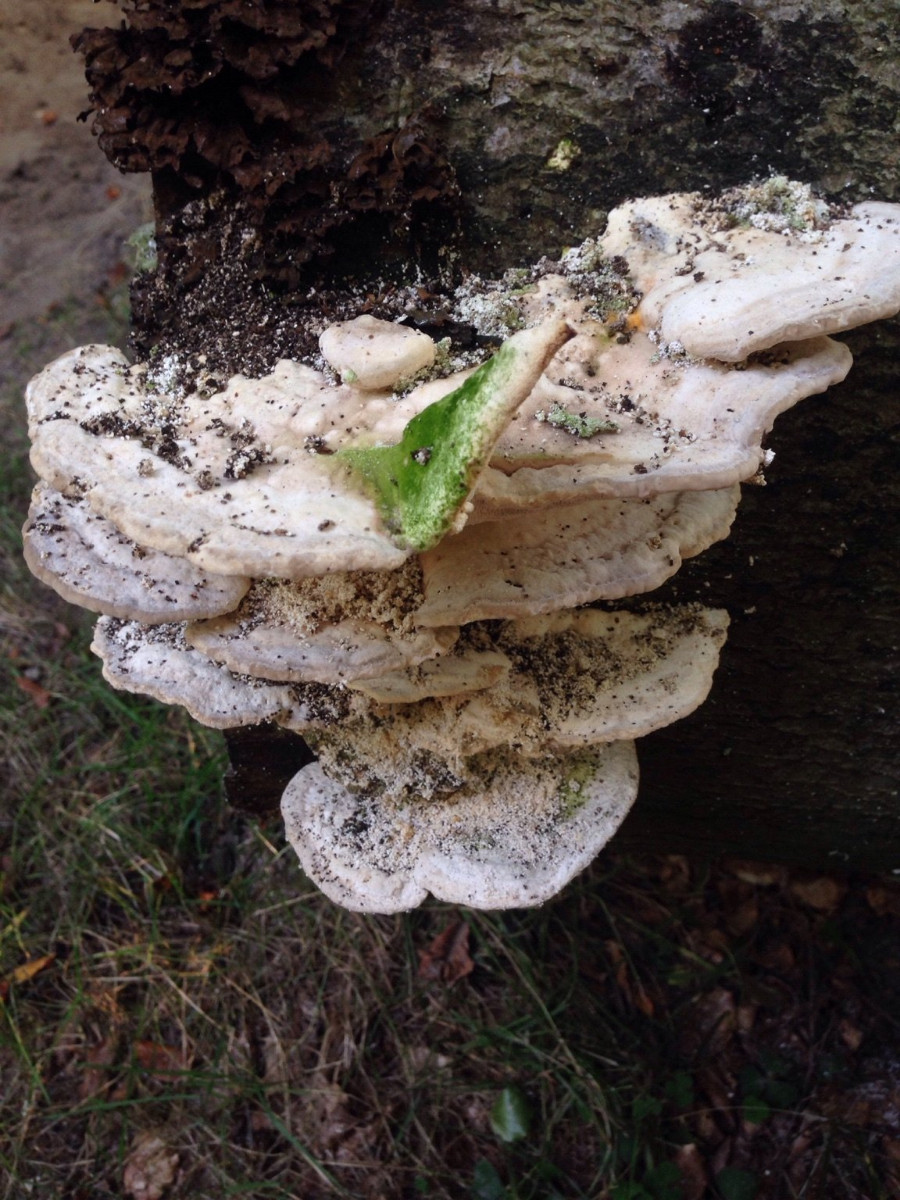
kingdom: Fungi
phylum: Basidiomycota
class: Agaricomycetes
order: Polyporales
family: Polyporaceae
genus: Trametes
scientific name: Trametes gibbosa
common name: puklet læderporesvamp
